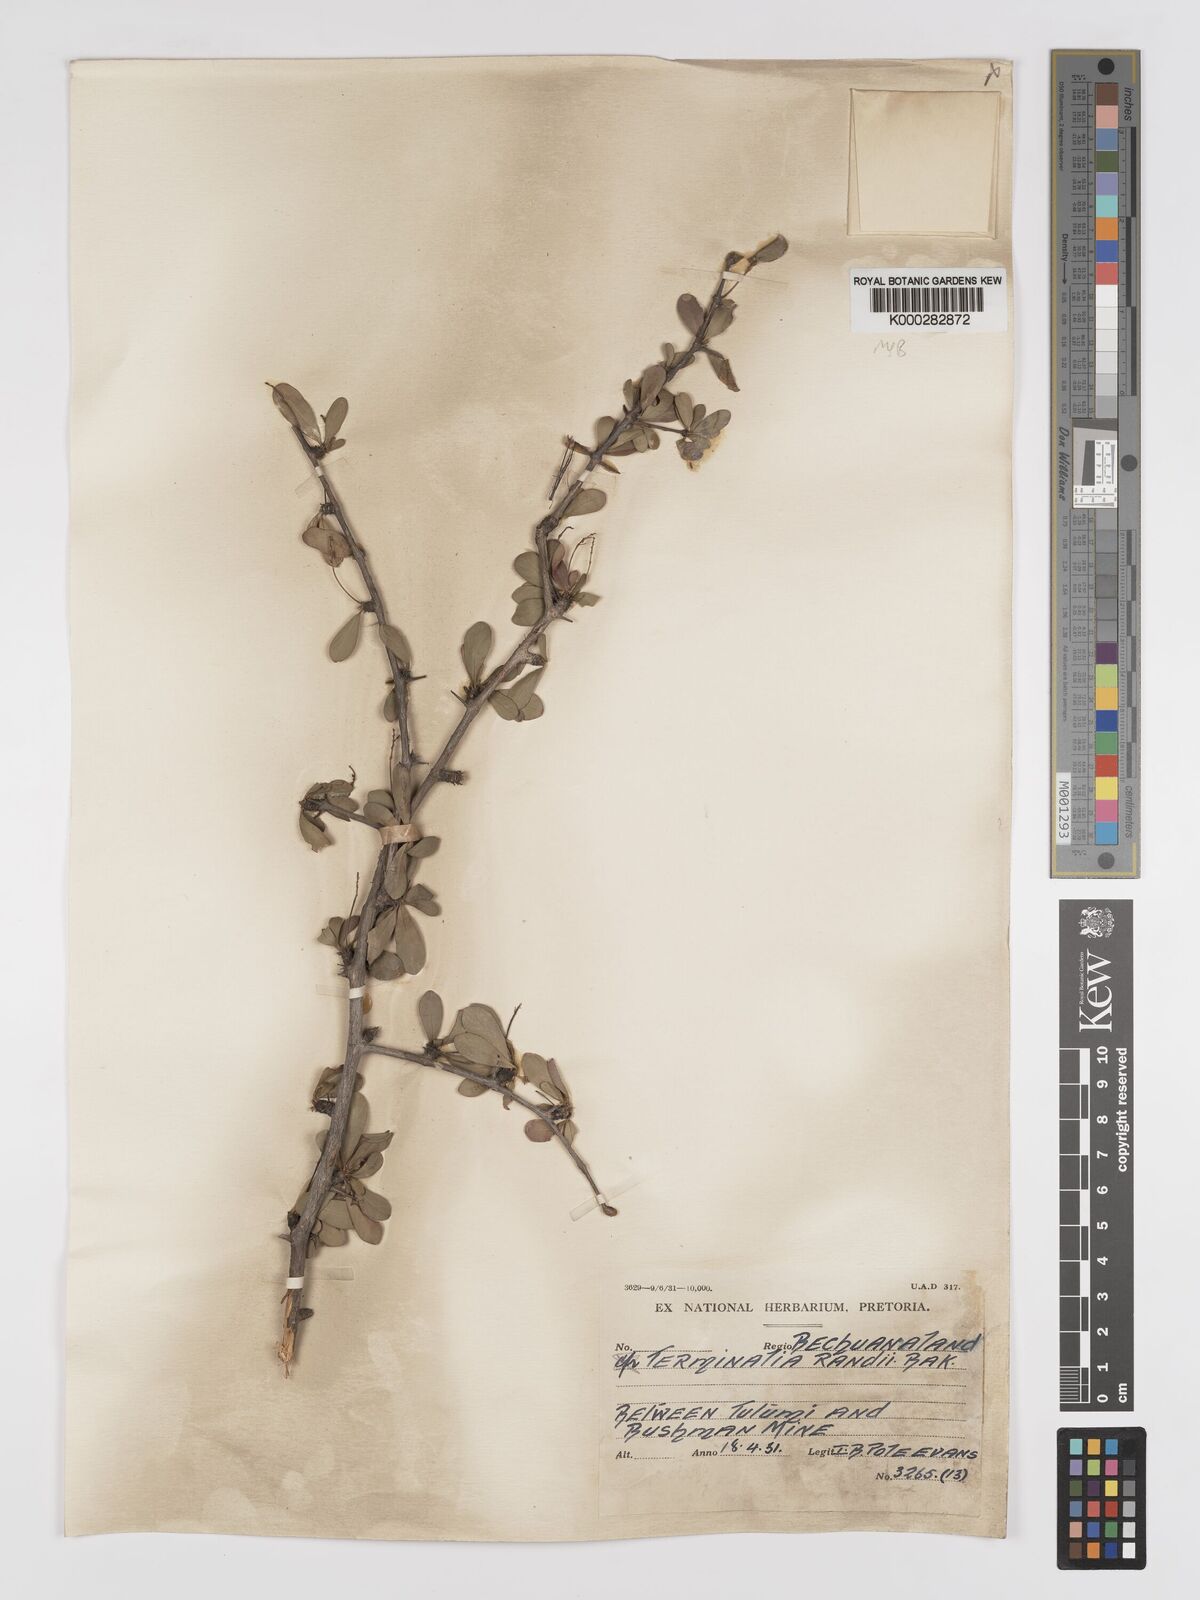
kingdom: Plantae
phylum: Tracheophyta
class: Magnoliopsida
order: Myrtales
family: Combretaceae
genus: Terminalia
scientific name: Terminalia randii
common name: Small-leaved terminalia
